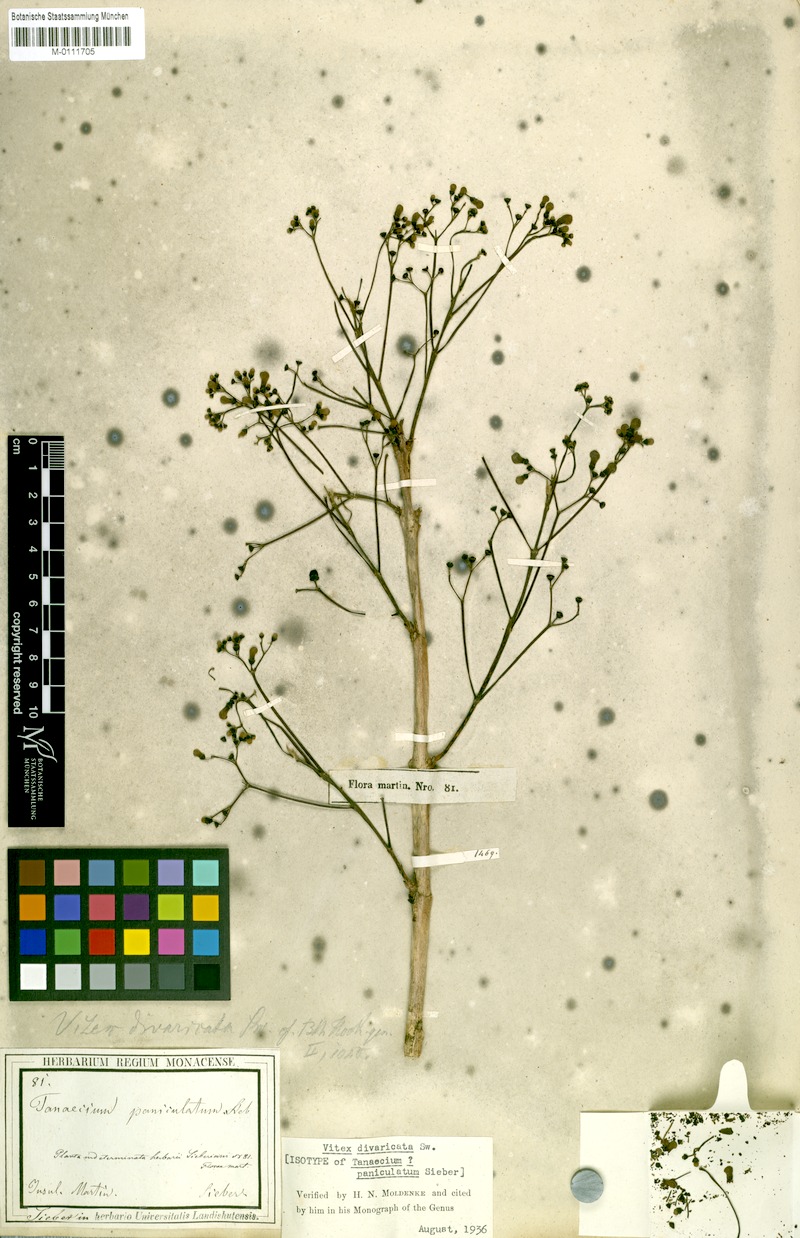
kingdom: Plantae
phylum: Tracheophyta
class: Magnoliopsida
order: Lamiales
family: Bignoniaceae
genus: Fridericia
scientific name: Fridericia patellifera
